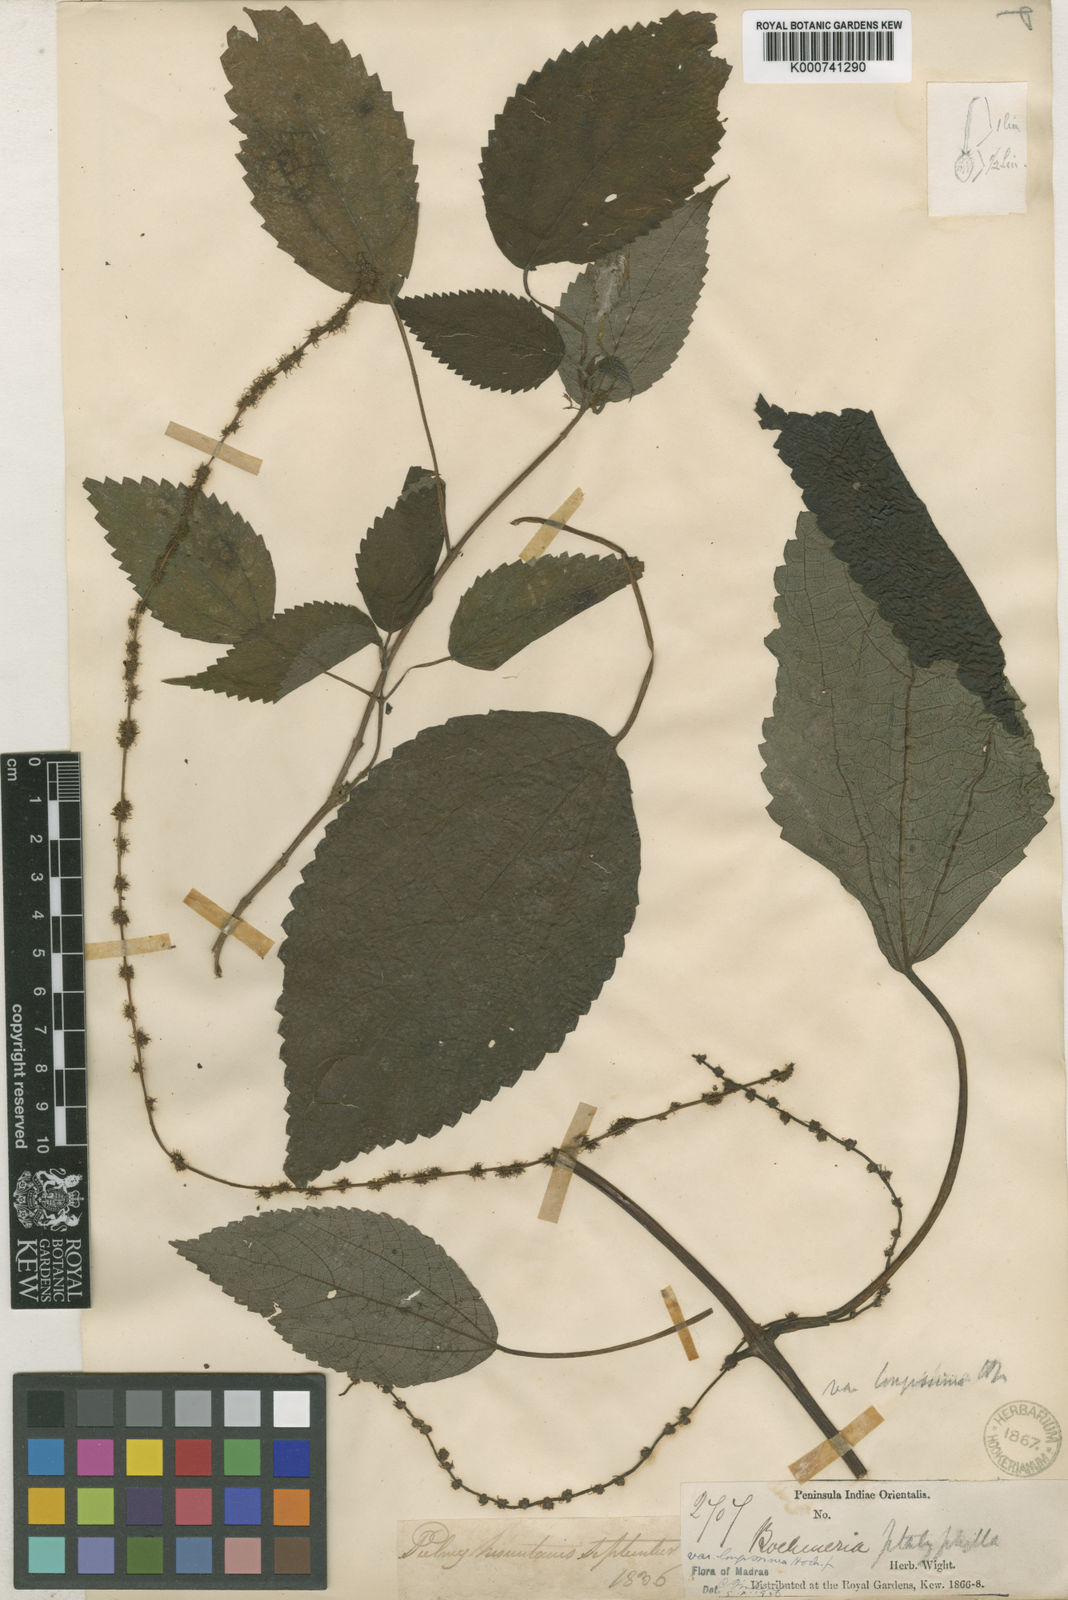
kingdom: Plantae
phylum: Tracheophyta
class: Magnoliopsida
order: Rosales
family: Urticaceae
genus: Boehmeria
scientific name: Boehmeria virgata
